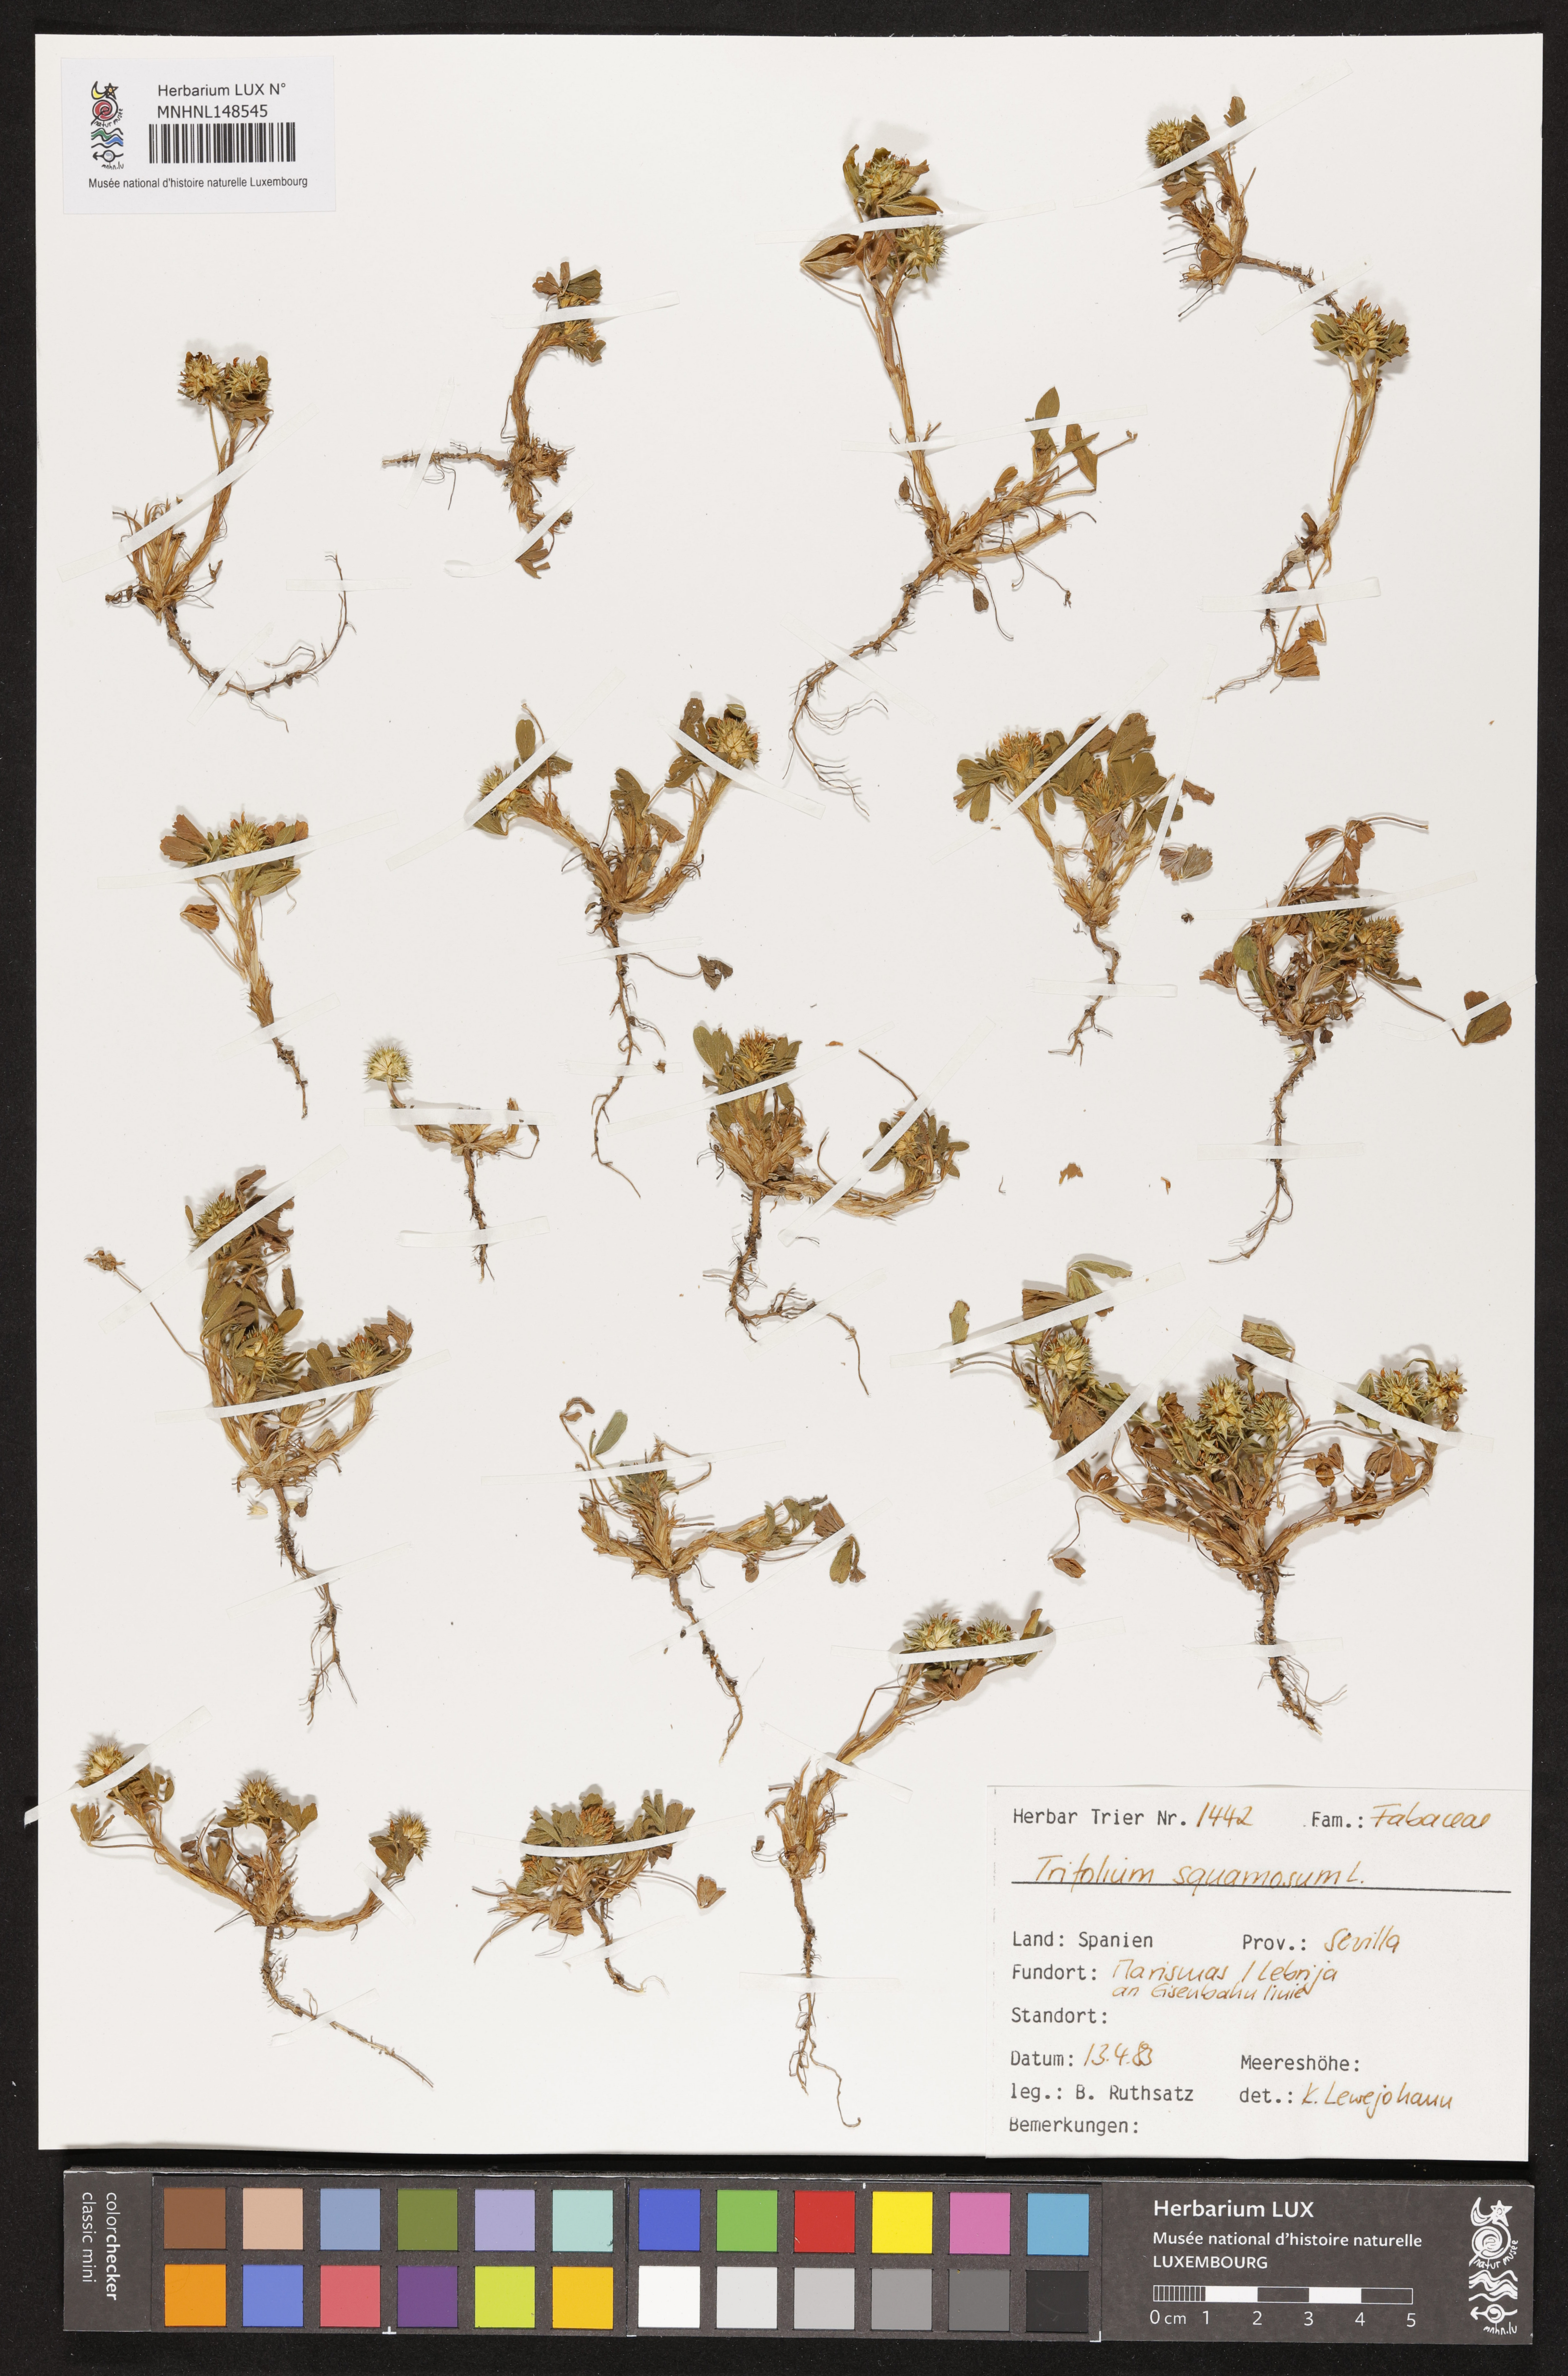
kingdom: Plantae
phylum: Tracheophyta
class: Magnoliopsida
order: Fabales
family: Fabaceae
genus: Trifolium
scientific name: Trifolium squamosum
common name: Sea clover
